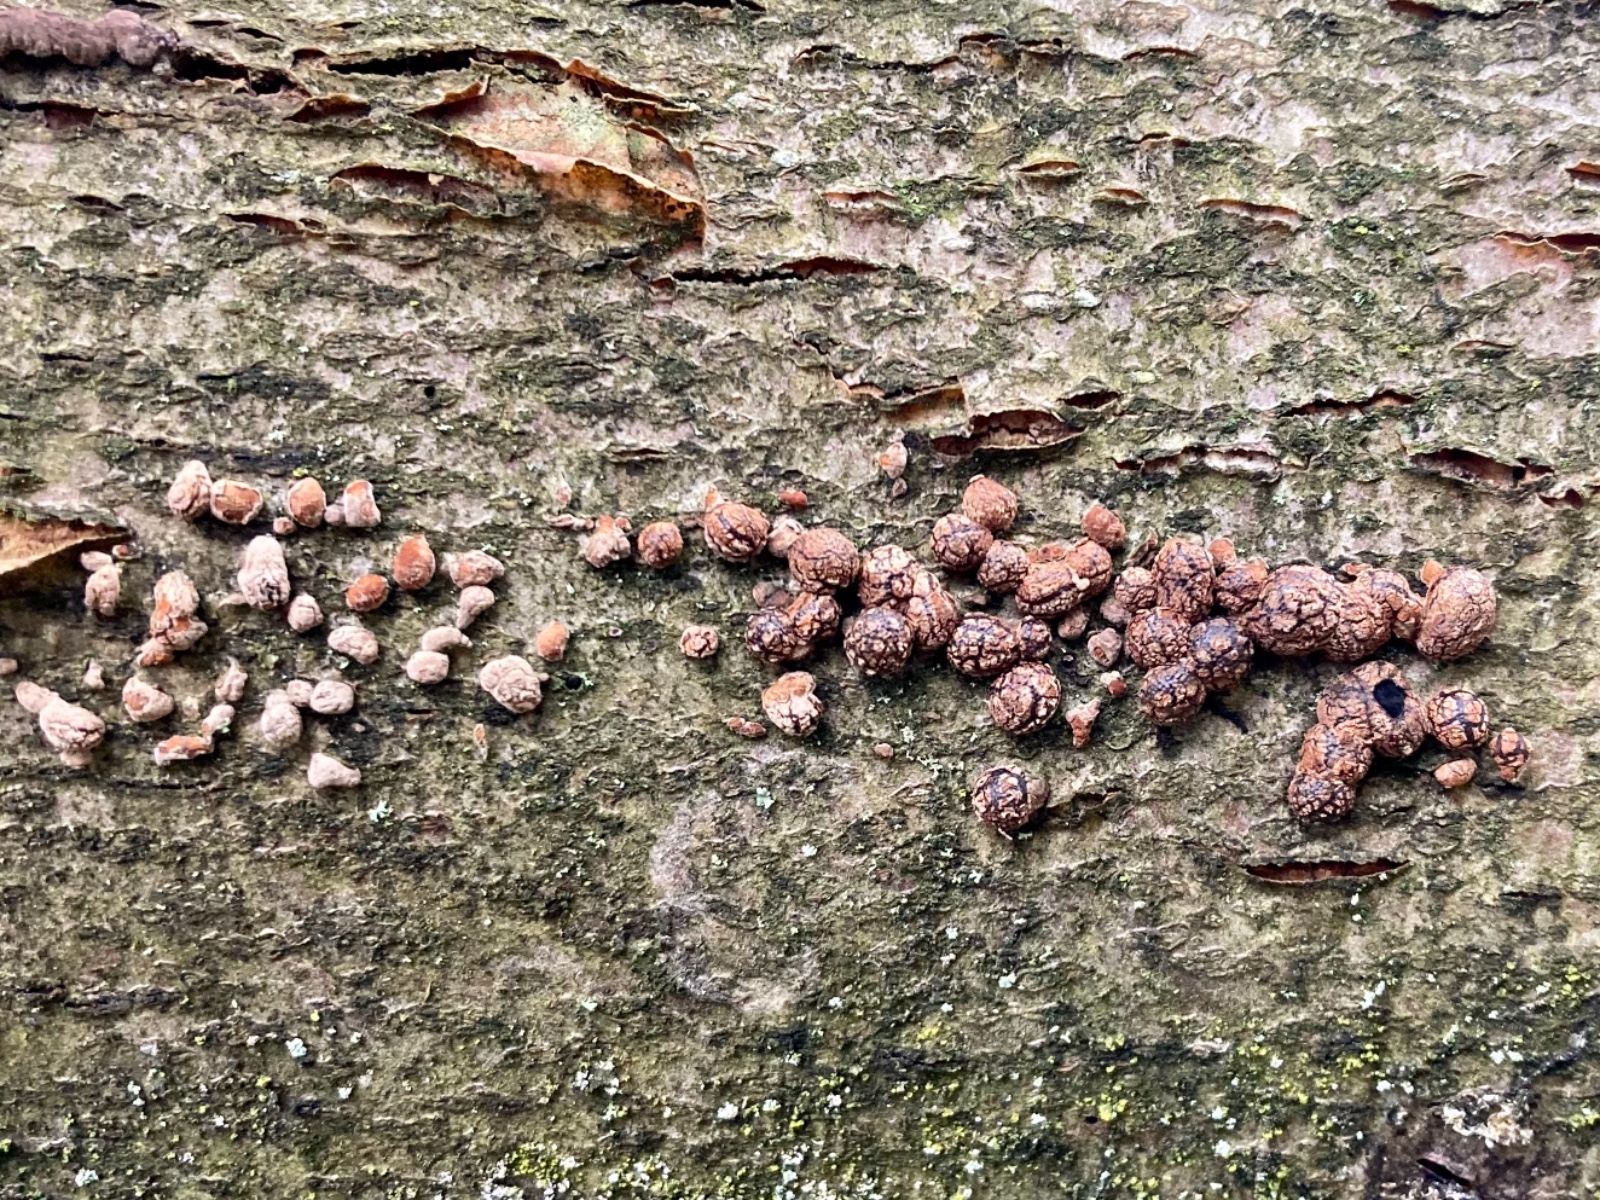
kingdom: Fungi
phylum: Ascomycota
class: Sordariomycetes
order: Xylariales
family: Hypoxylaceae
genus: Hypoxylon
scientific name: Hypoxylon fragiforme
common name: kuljordbær
